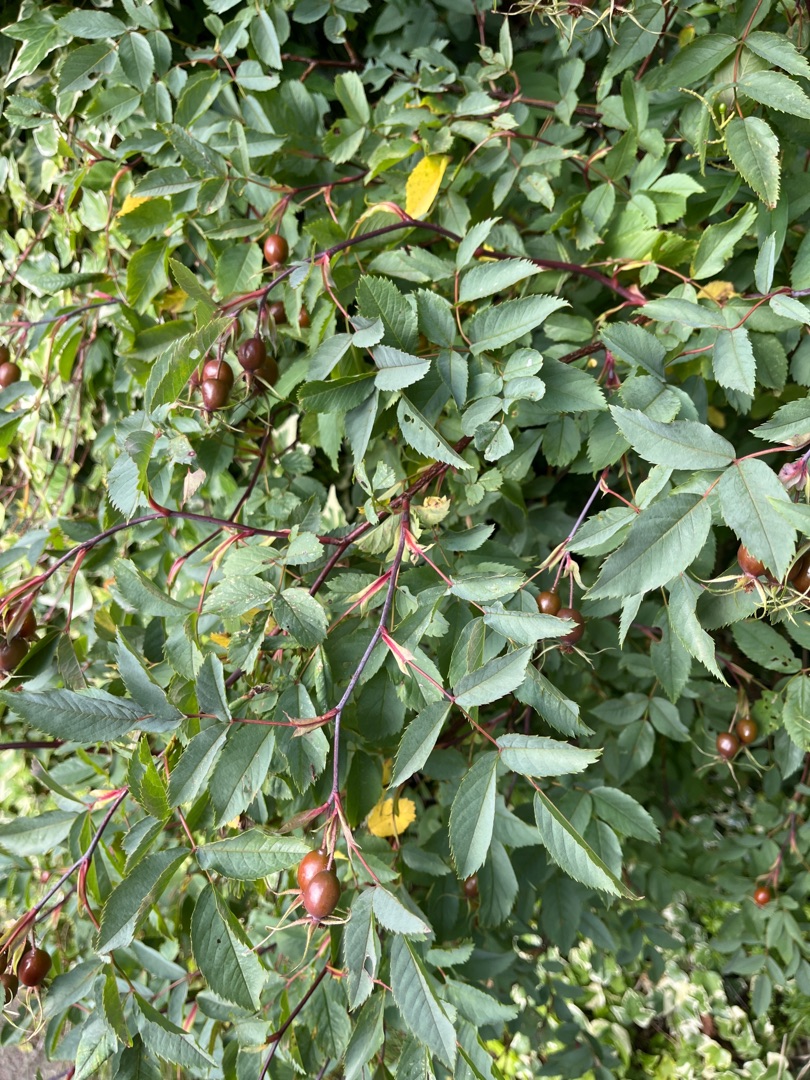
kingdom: Plantae
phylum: Tracheophyta
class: Magnoliopsida
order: Rosales
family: Rosaceae
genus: Rosa
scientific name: Rosa glauca
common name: Kobber-rose
